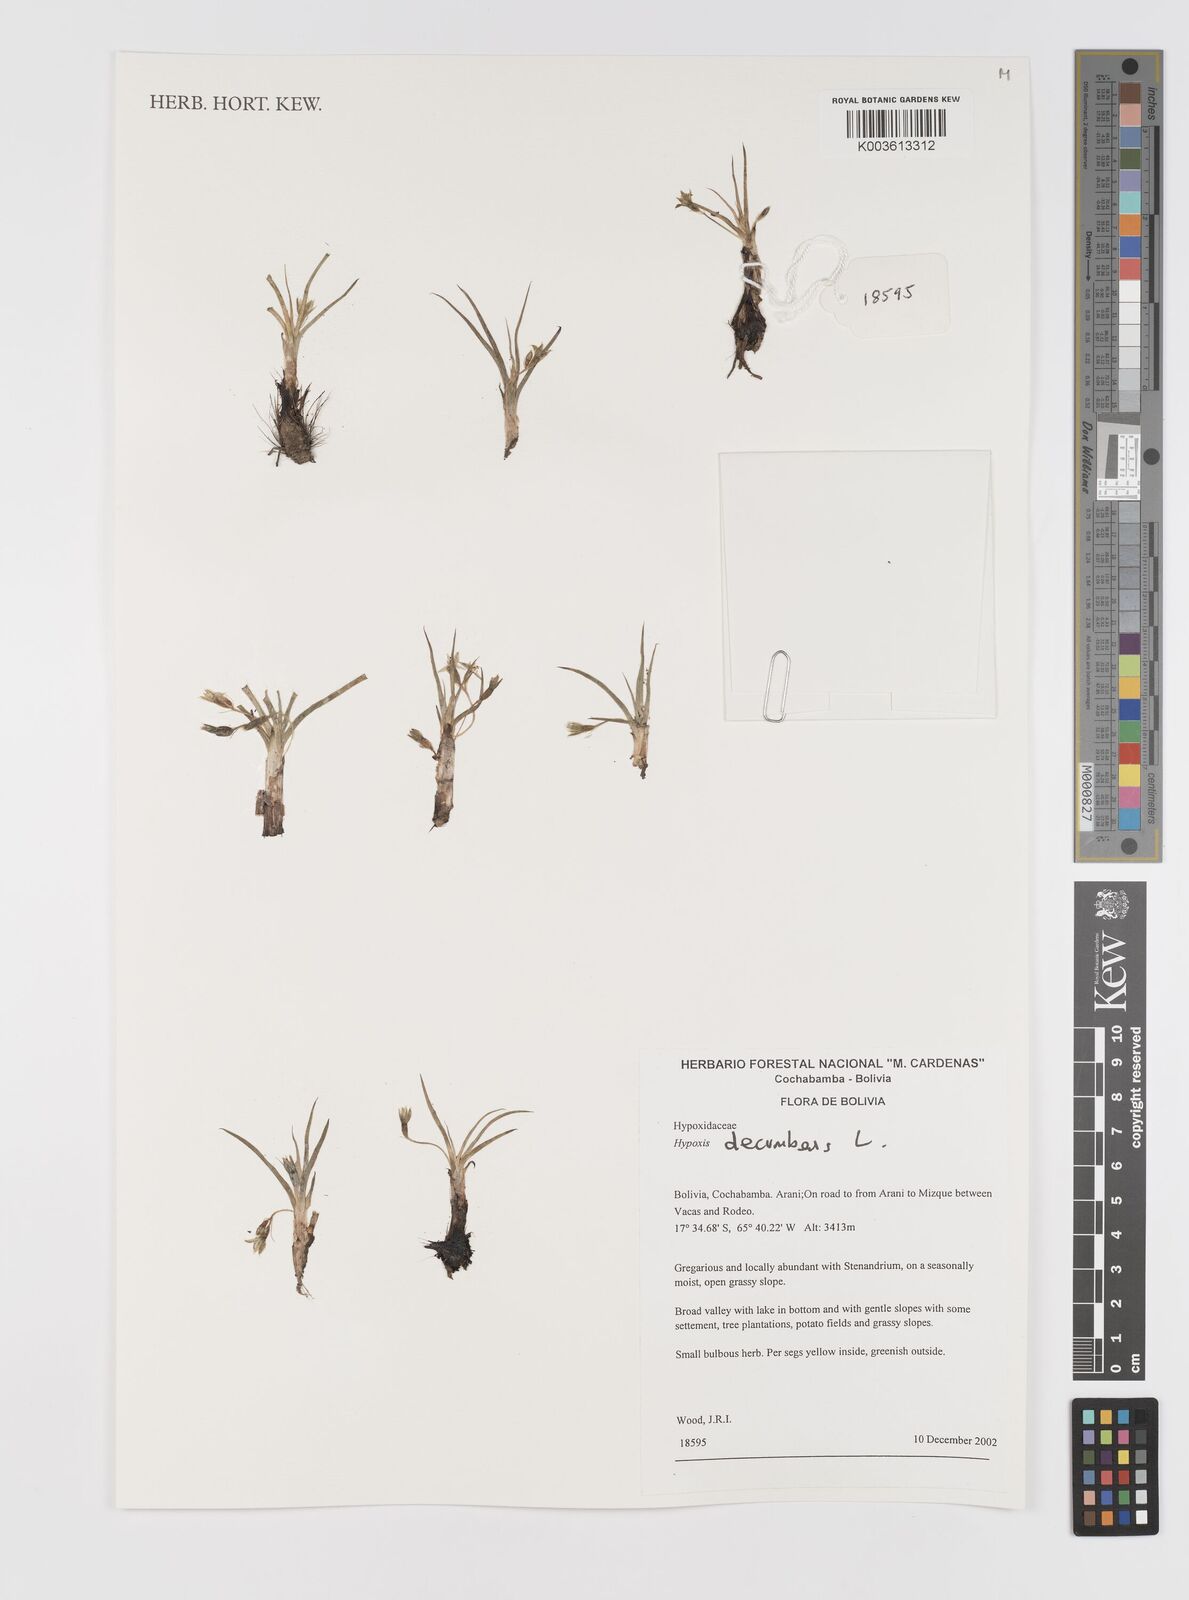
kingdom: Plantae
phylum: Tracheophyta
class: Liliopsida
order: Asparagales
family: Hypoxidaceae
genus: Hypoxis
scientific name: Hypoxis decumbens
